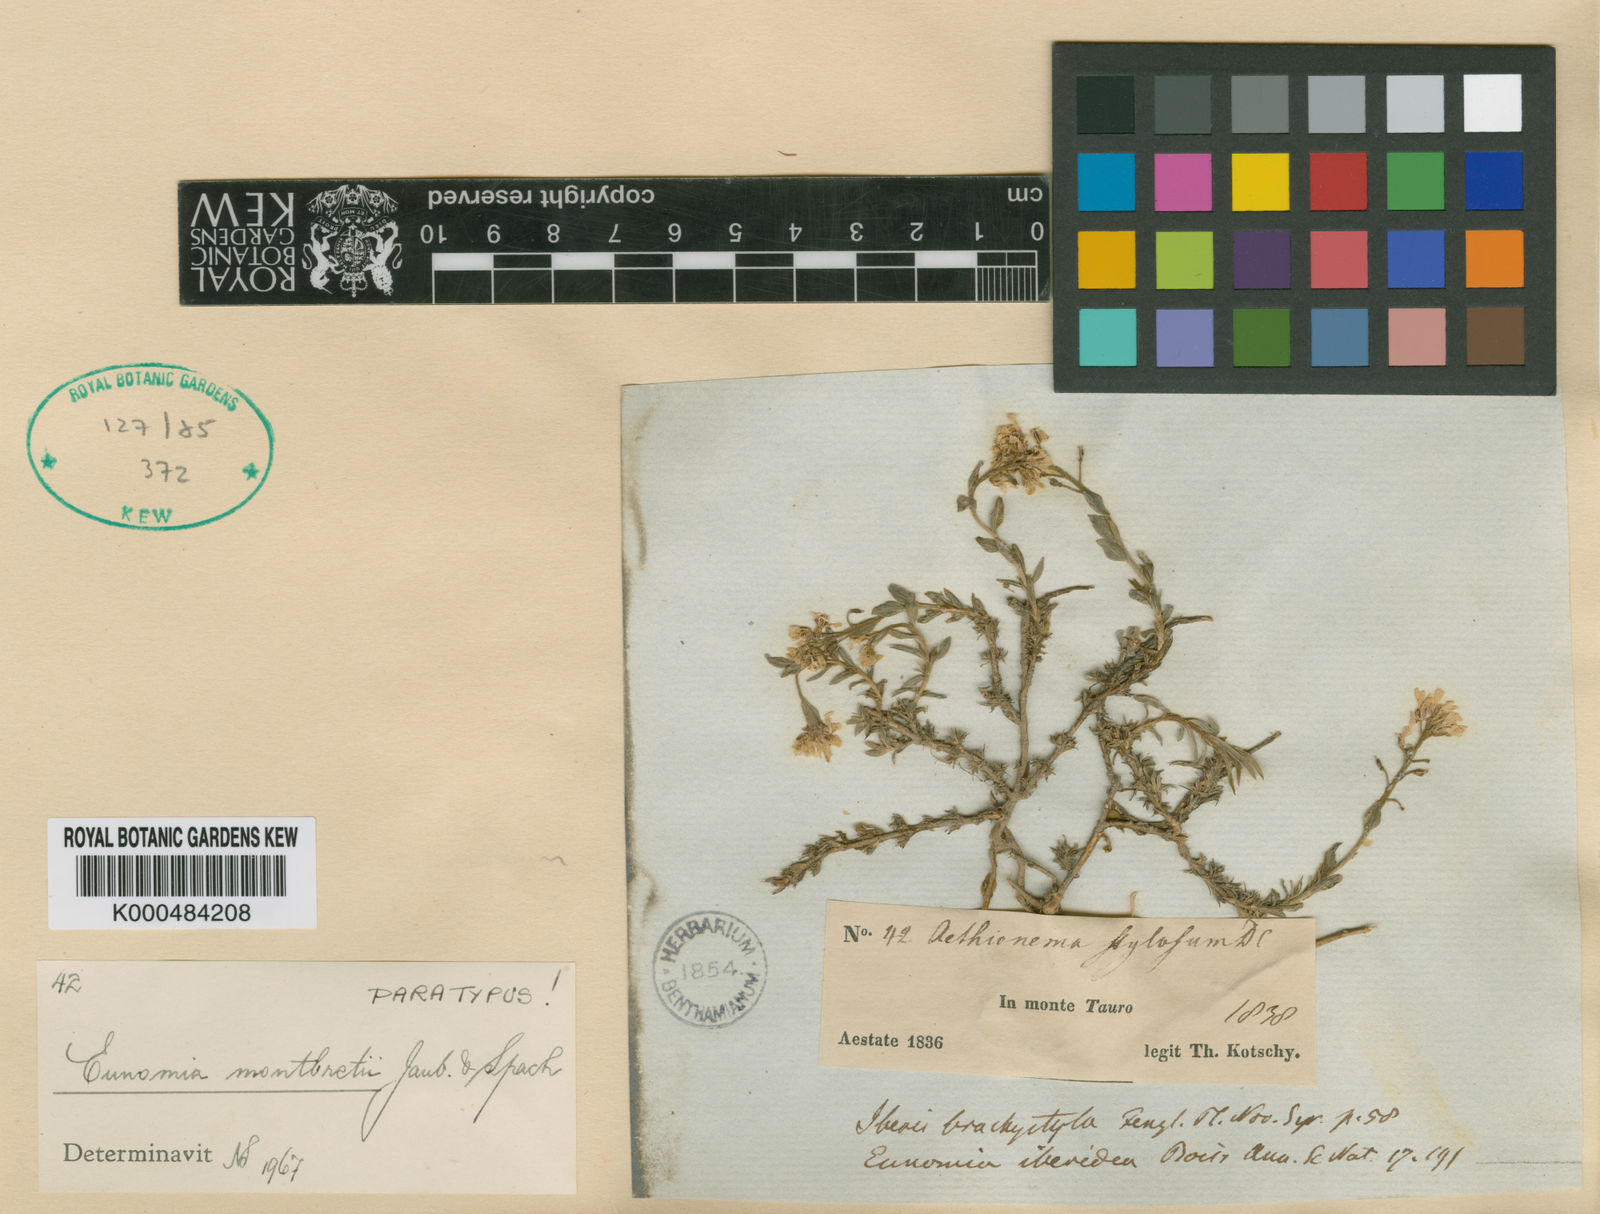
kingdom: Plantae
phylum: Tracheophyta
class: Magnoliopsida
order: Brassicales
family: Brassicaceae
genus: Noccaea
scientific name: Noccaea iberidea
